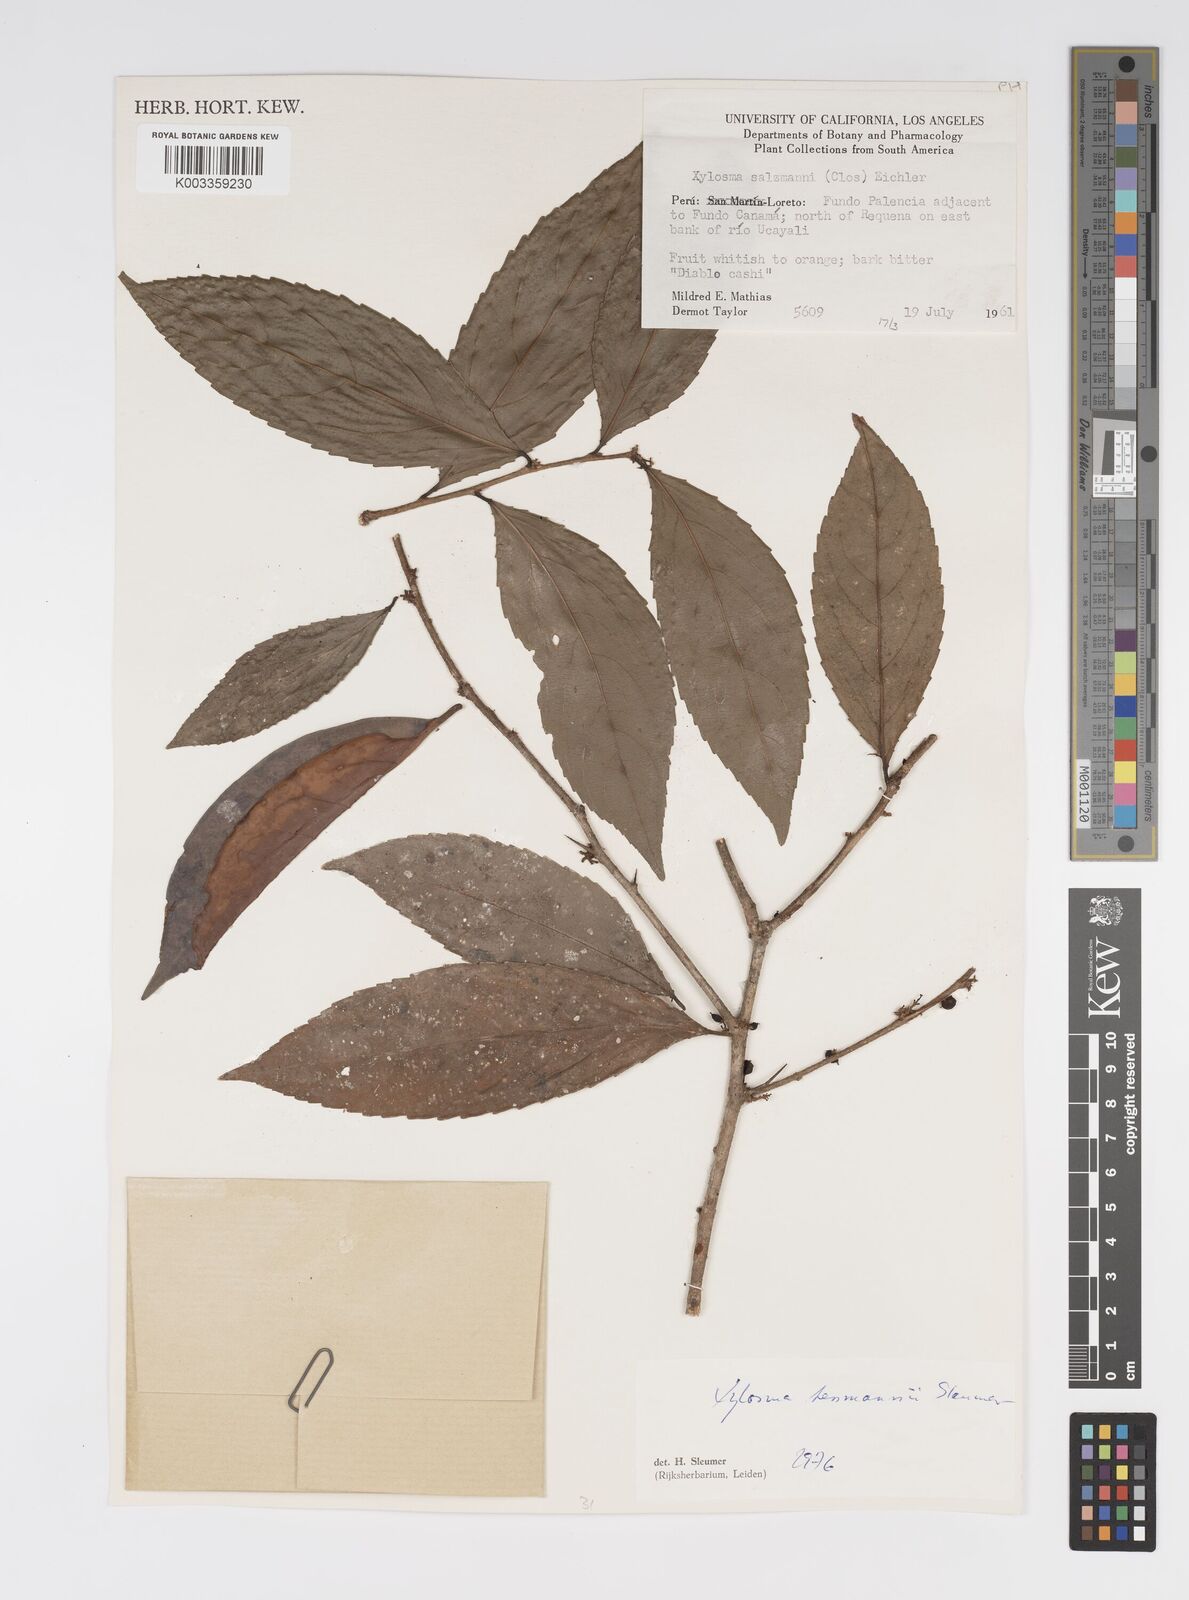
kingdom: Plantae
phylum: Tracheophyta
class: Magnoliopsida
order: Malpighiales
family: Salicaceae
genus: Xylosma
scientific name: Xylosma tessmannii
